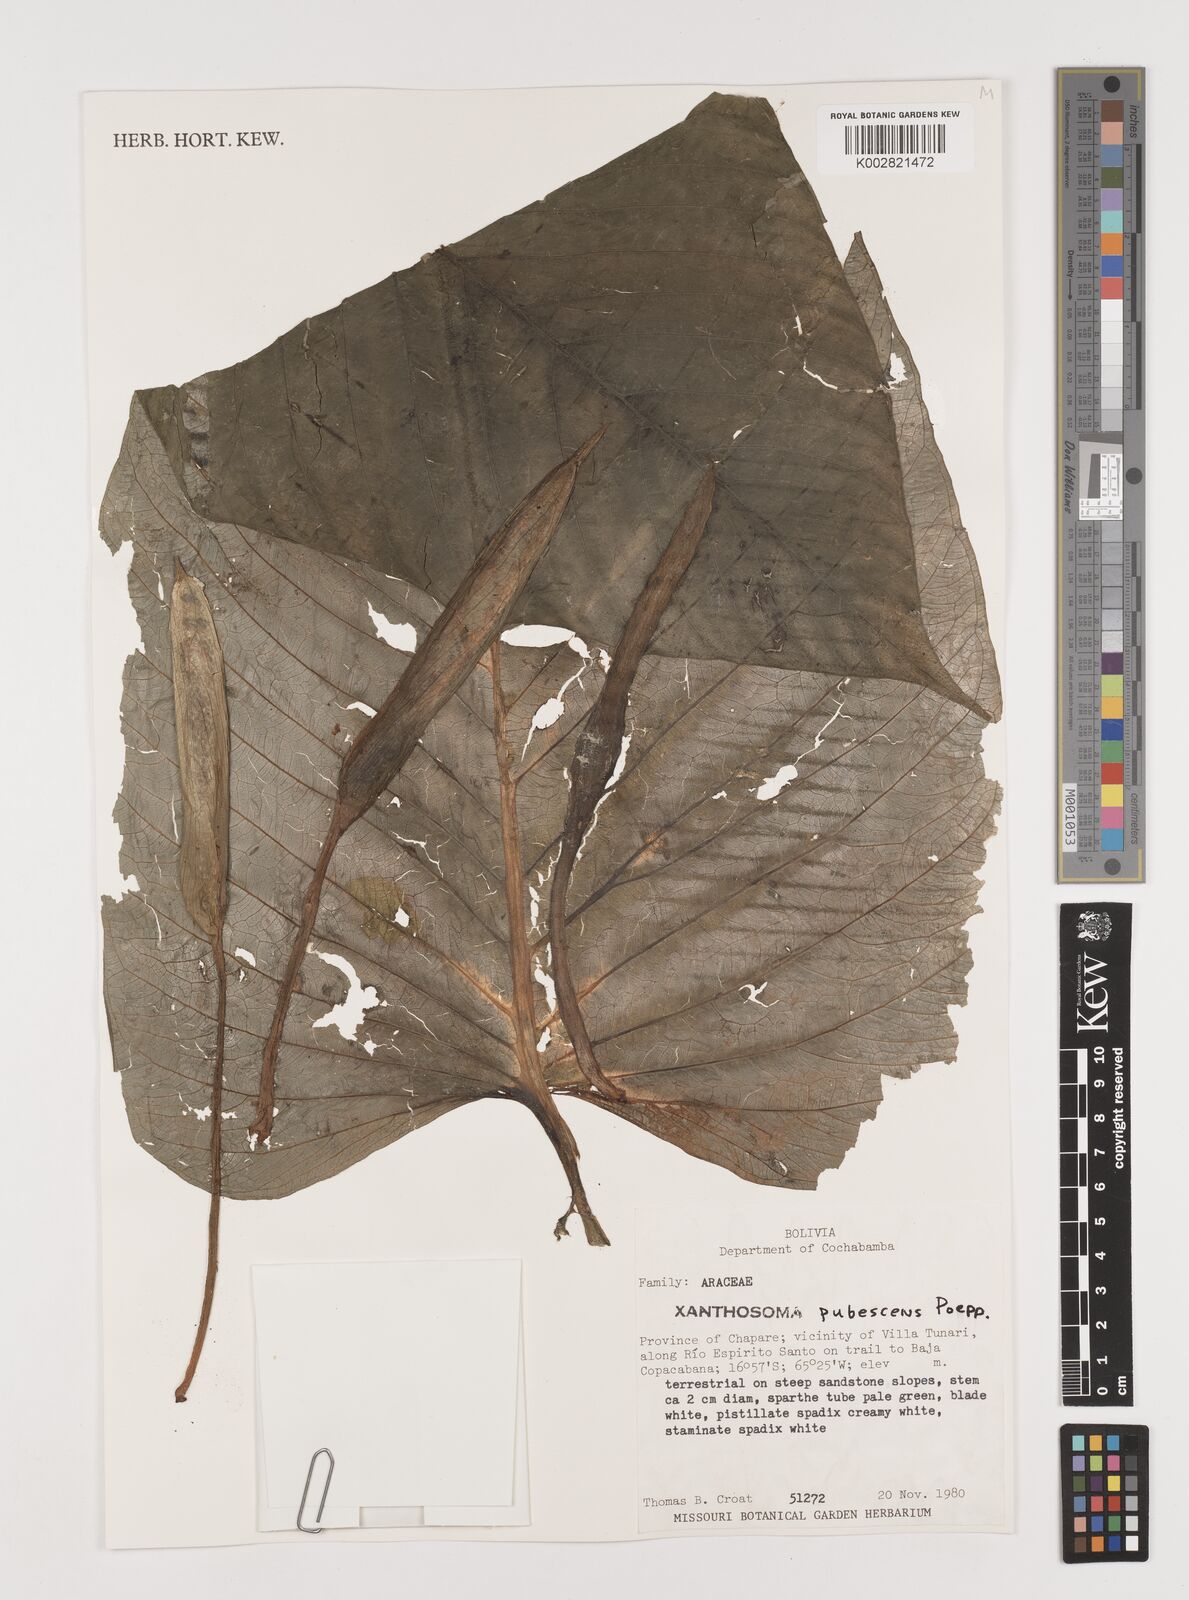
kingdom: Plantae
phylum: Tracheophyta
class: Liliopsida
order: Alismatales
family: Araceae
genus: Xanthosoma
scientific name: Xanthosoma pubescens
